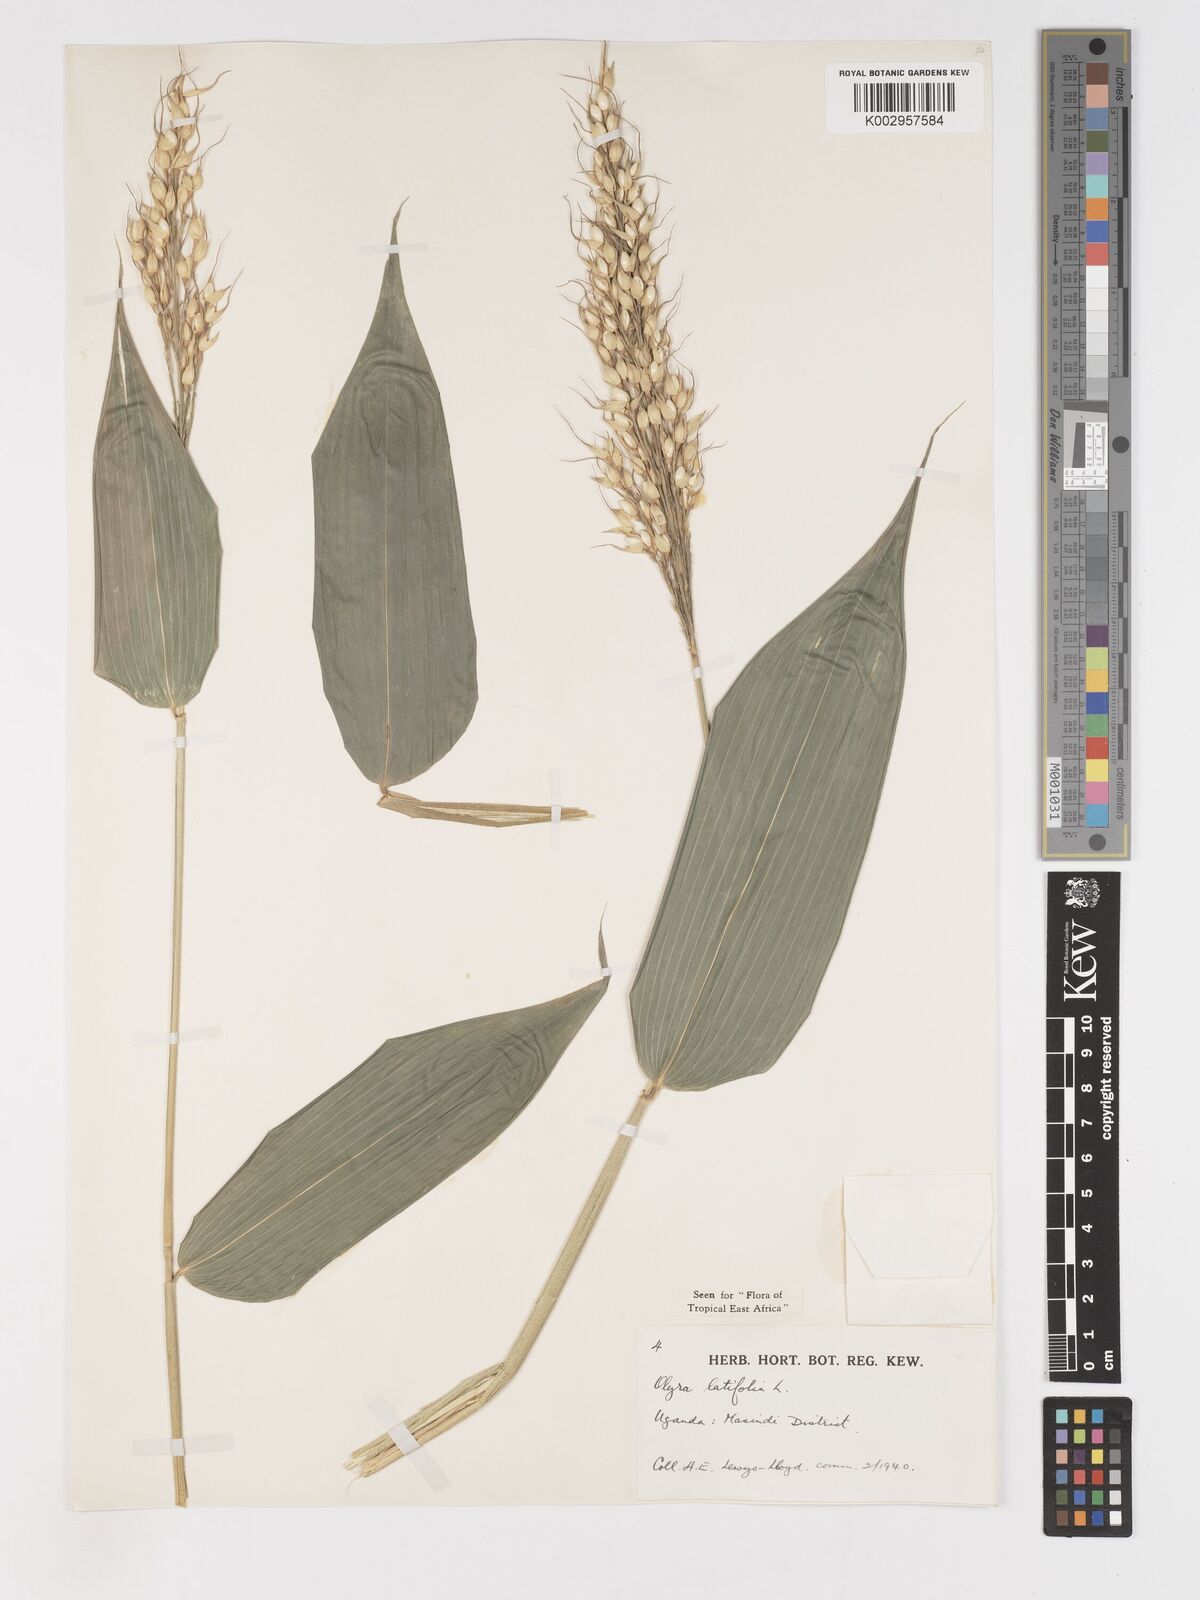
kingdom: Plantae
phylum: Tracheophyta
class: Liliopsida
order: Poales
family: Poaceae
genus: Olyra
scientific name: Olyra latifolia
